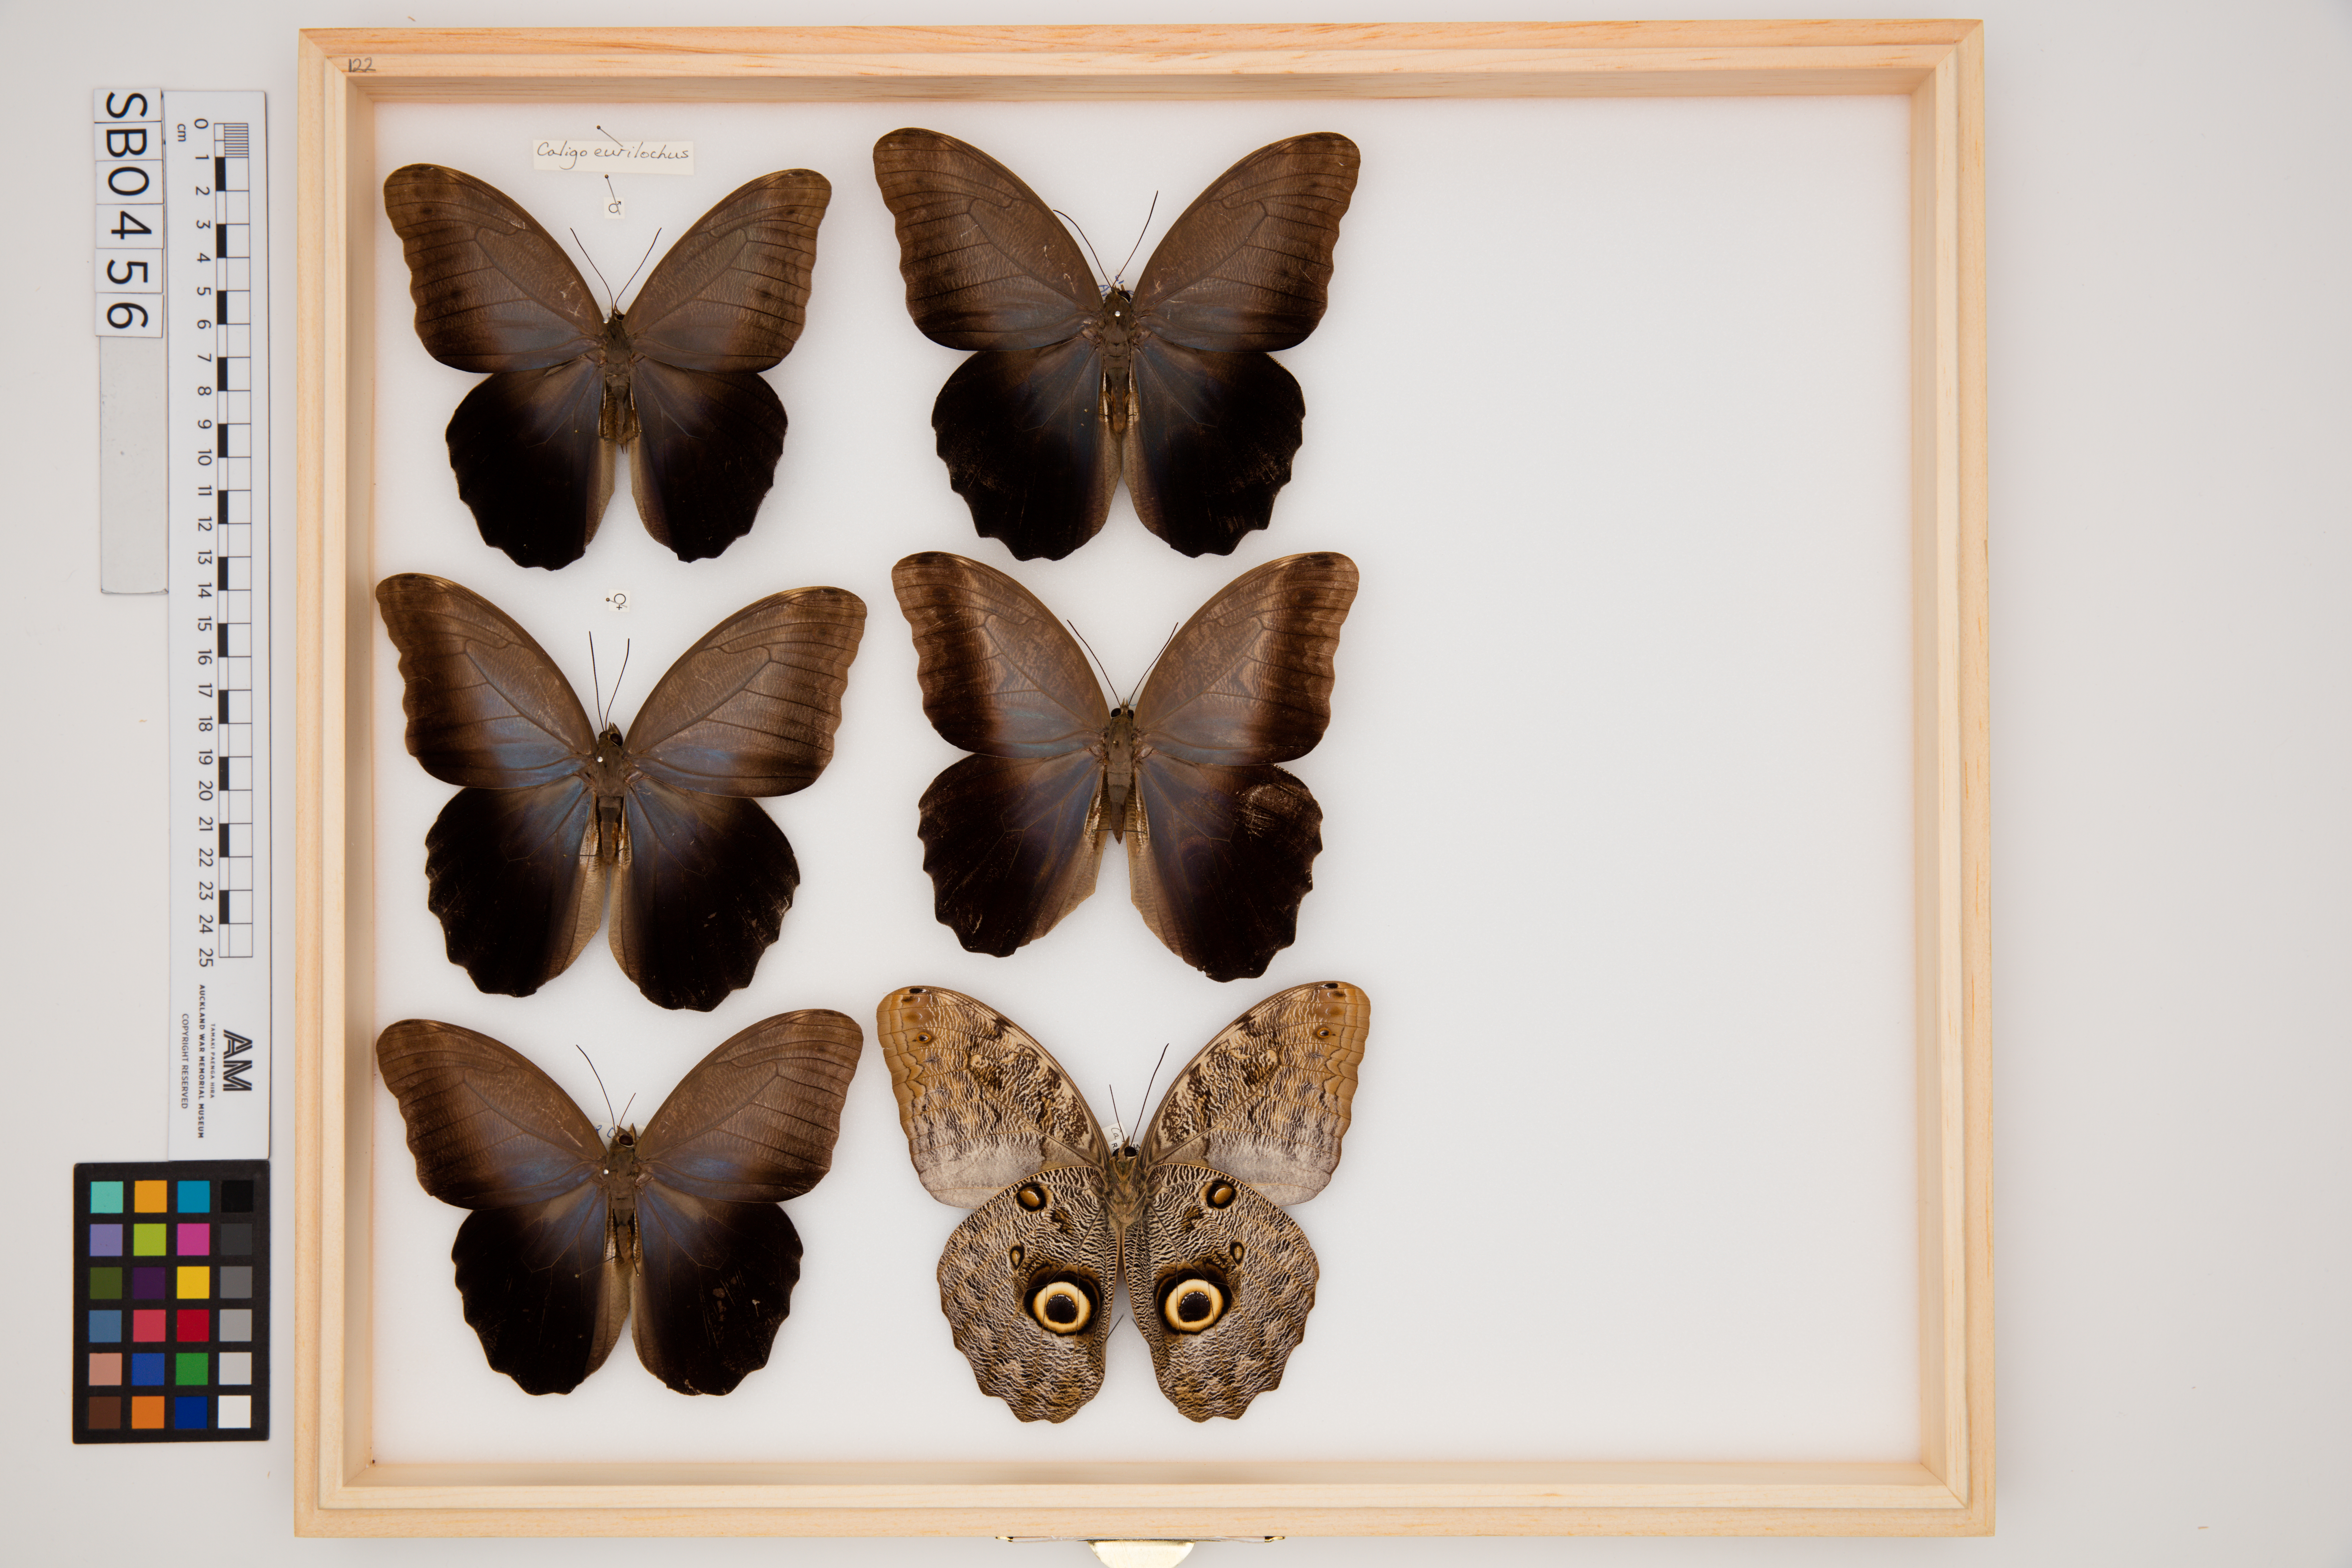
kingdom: Animalia
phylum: Arthropoda
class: Insecta
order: Lepidoptera
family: Nymphalidae
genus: Caligo
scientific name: Caligo eurilochus
